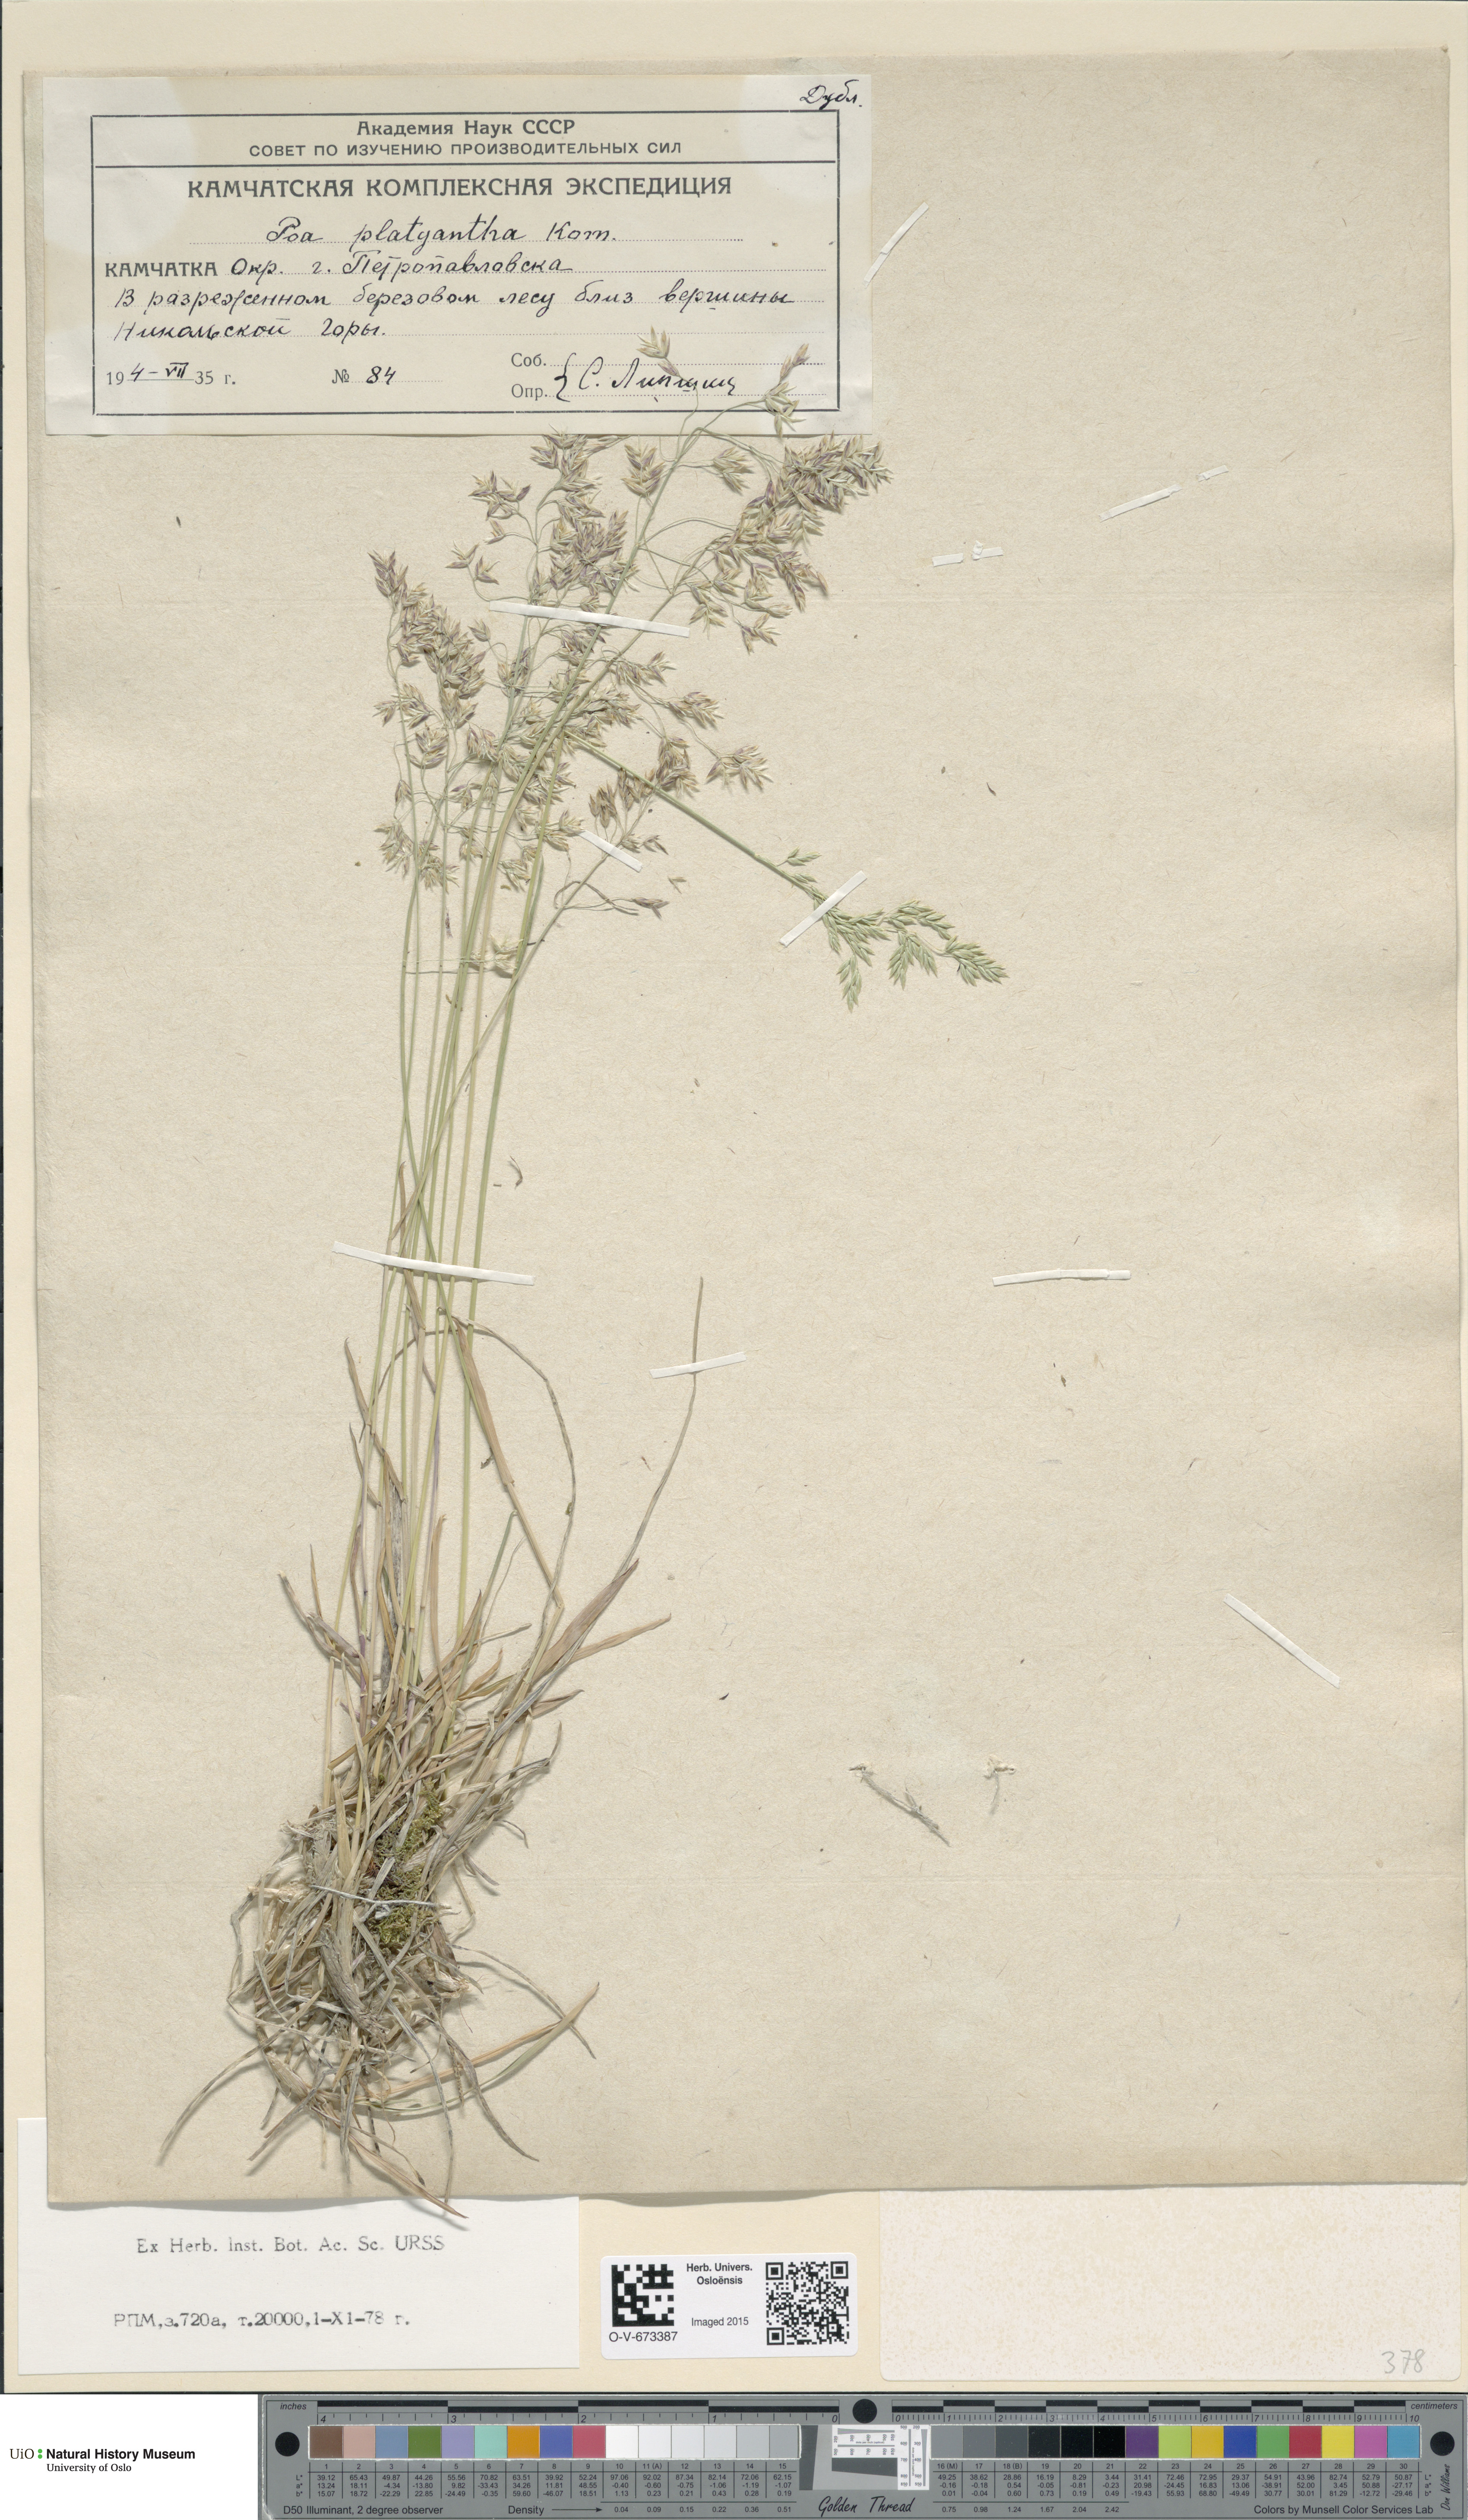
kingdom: Plantae
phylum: Tracheophyta
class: Liliopsida
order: Poales
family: Poaceae
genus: Poa
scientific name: Poa platyantha
